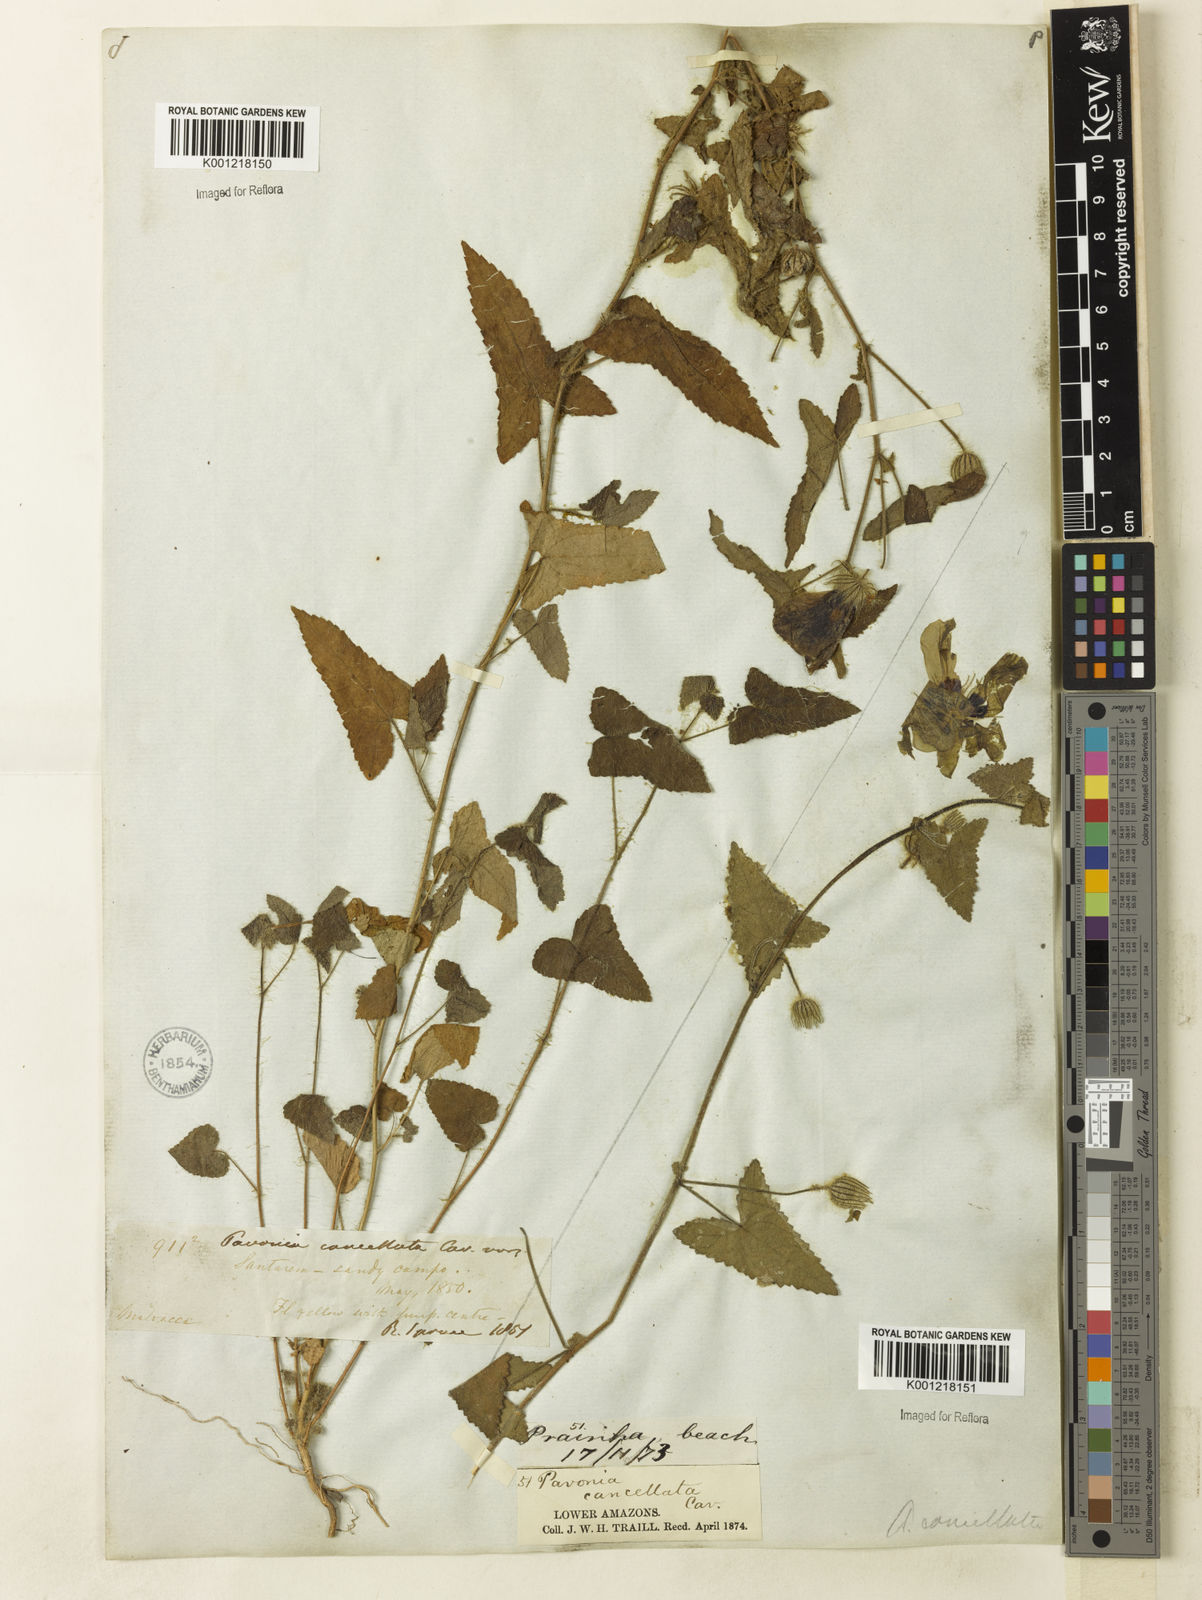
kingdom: Plantae
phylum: Tracheophyta
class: Magnoliopsida
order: Malvales
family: Malvaceae
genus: Pavonia
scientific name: Pavonia cancellata
